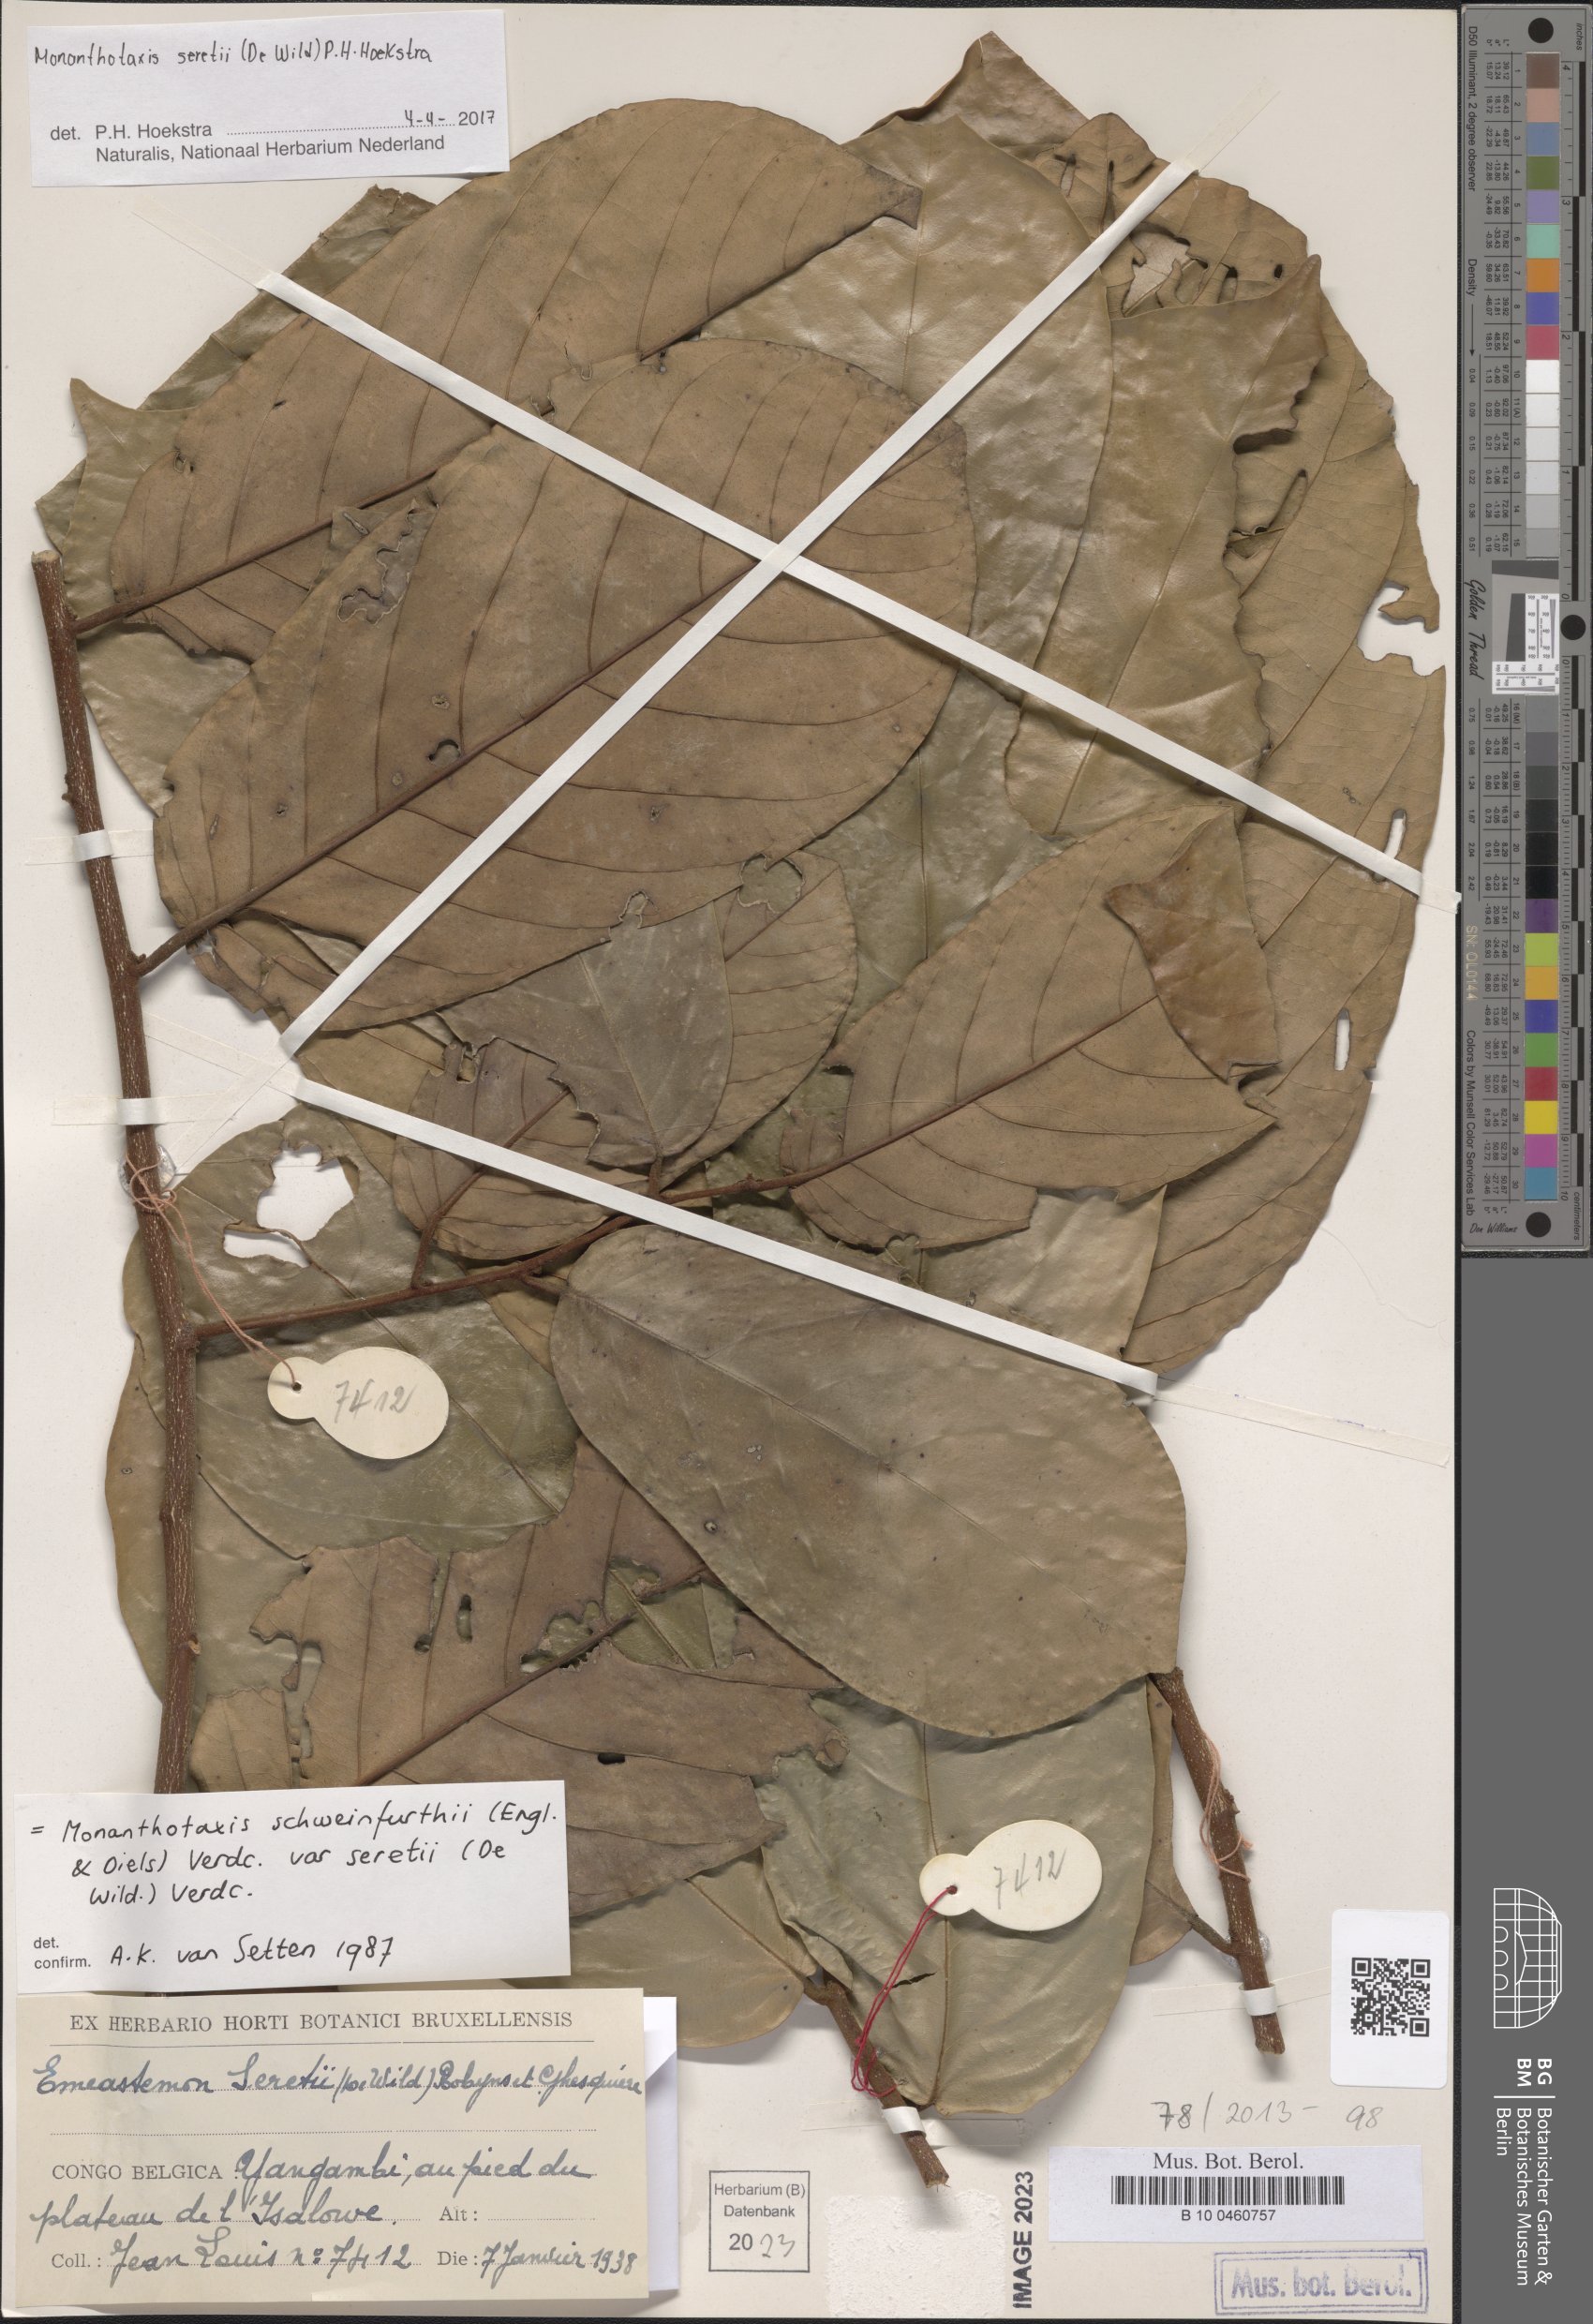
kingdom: Plantae
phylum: Tracheophyta
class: Magnoliopsida
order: Magnoliales
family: Annonaceae
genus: Monanthotaxis
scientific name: Monanthotaxis
